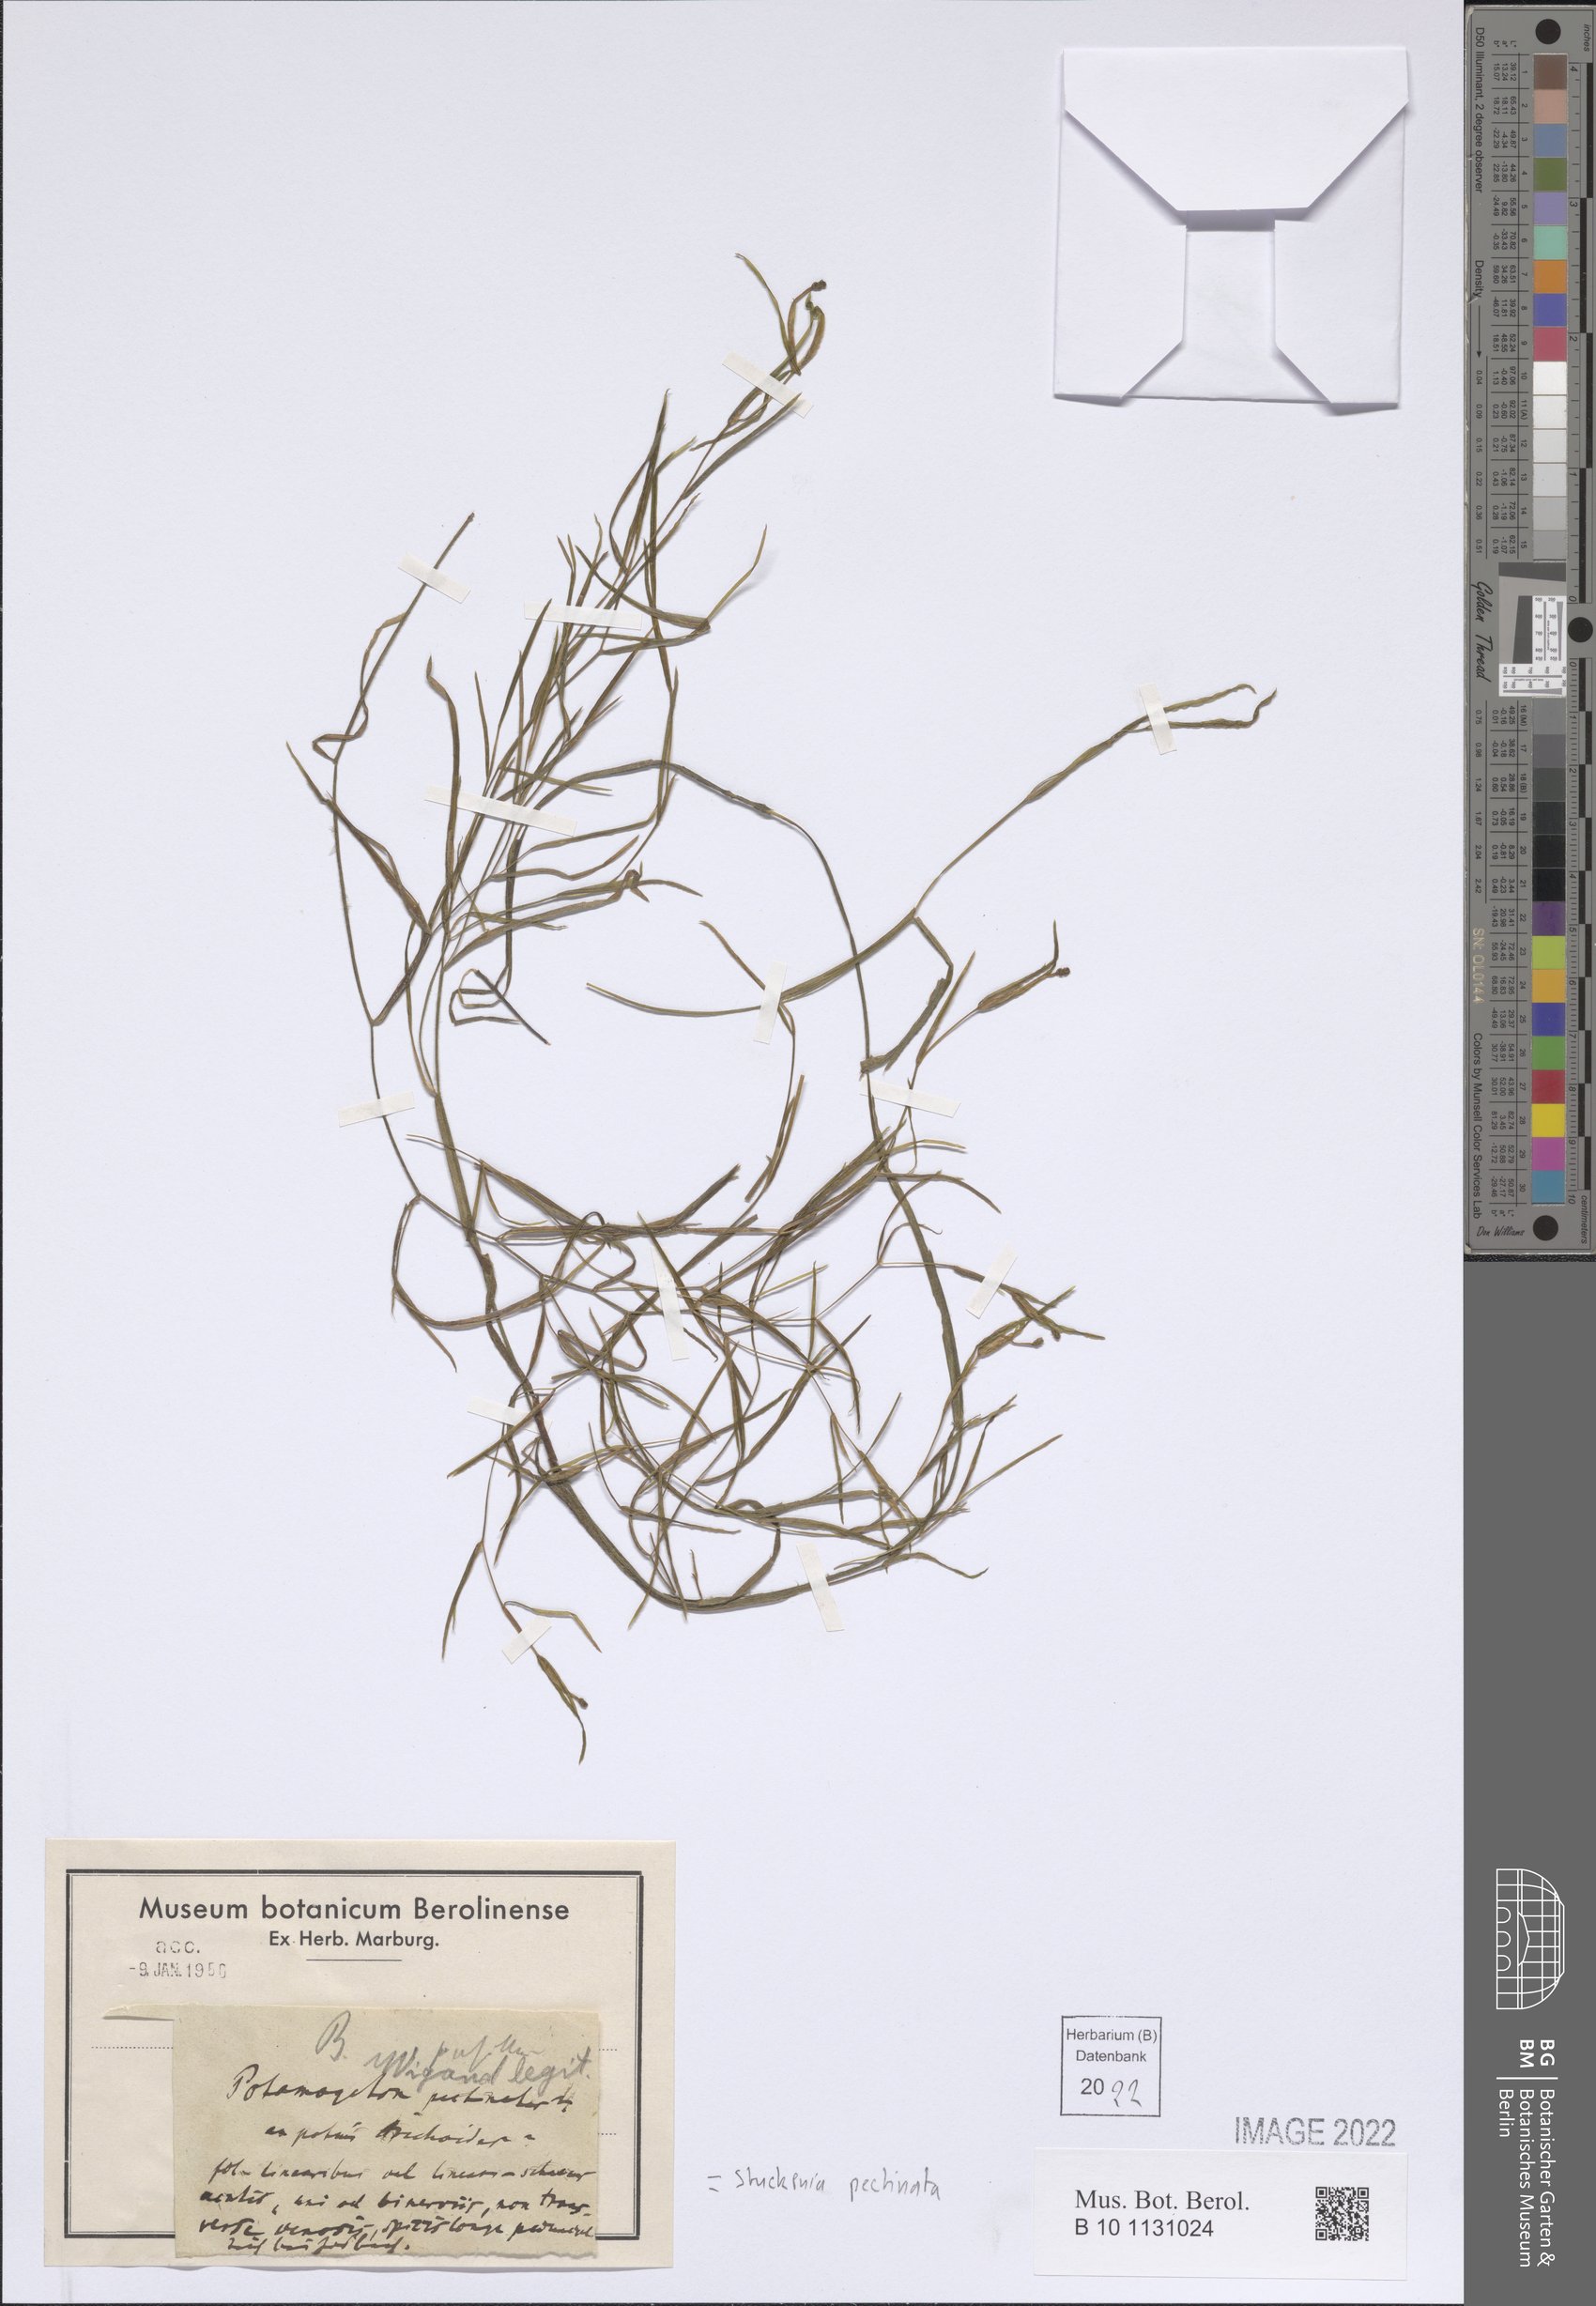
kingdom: Plantae
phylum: Tracheophyta
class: Liliopsida
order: Alismatales
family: Potamogetonaceae
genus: Stuckenia
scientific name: Stuckenia pectinata
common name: Sago pondweed
